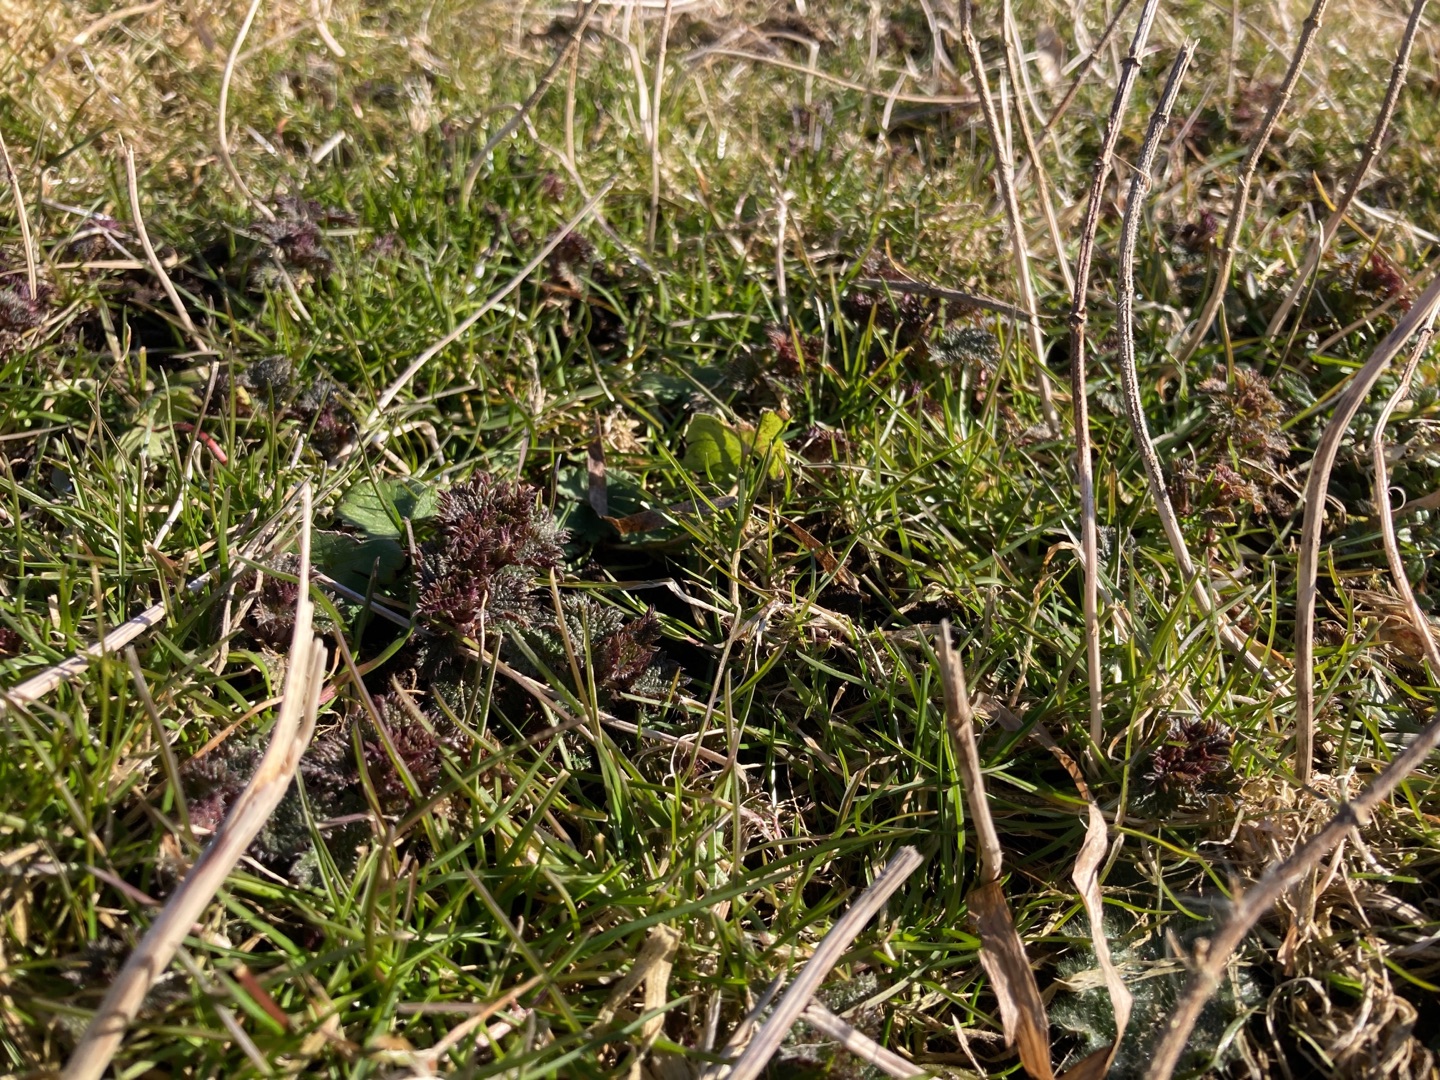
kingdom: Plantae
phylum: Tracheophyta
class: Magnoliopsida
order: Rosales
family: Urticaceae
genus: Urtica
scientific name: Urtica dioica
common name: Stor nælde
